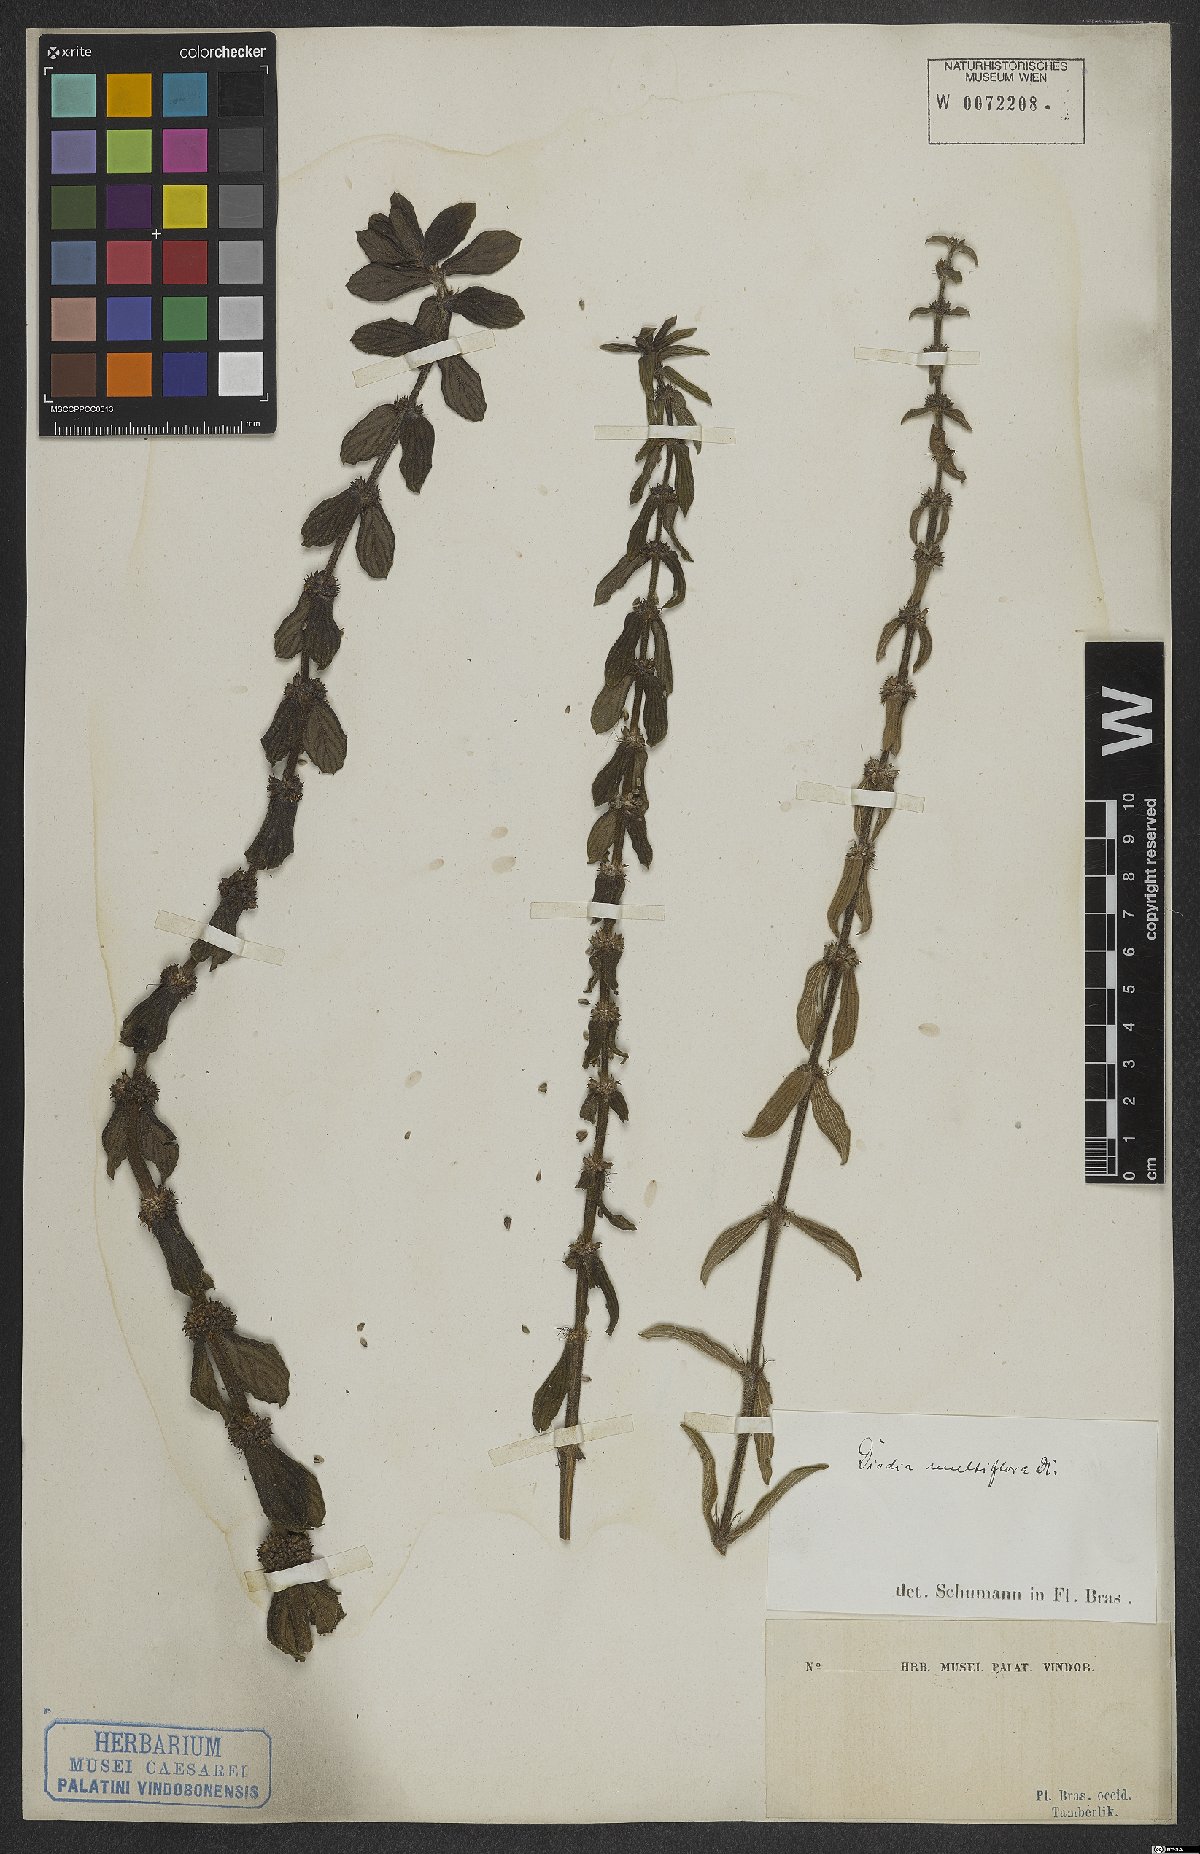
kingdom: Plantae
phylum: Tracheophyta
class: Magnoliopsida
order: Gentianales
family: Rubiaceae
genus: Spermacoce
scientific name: Spermacoce multiflora
